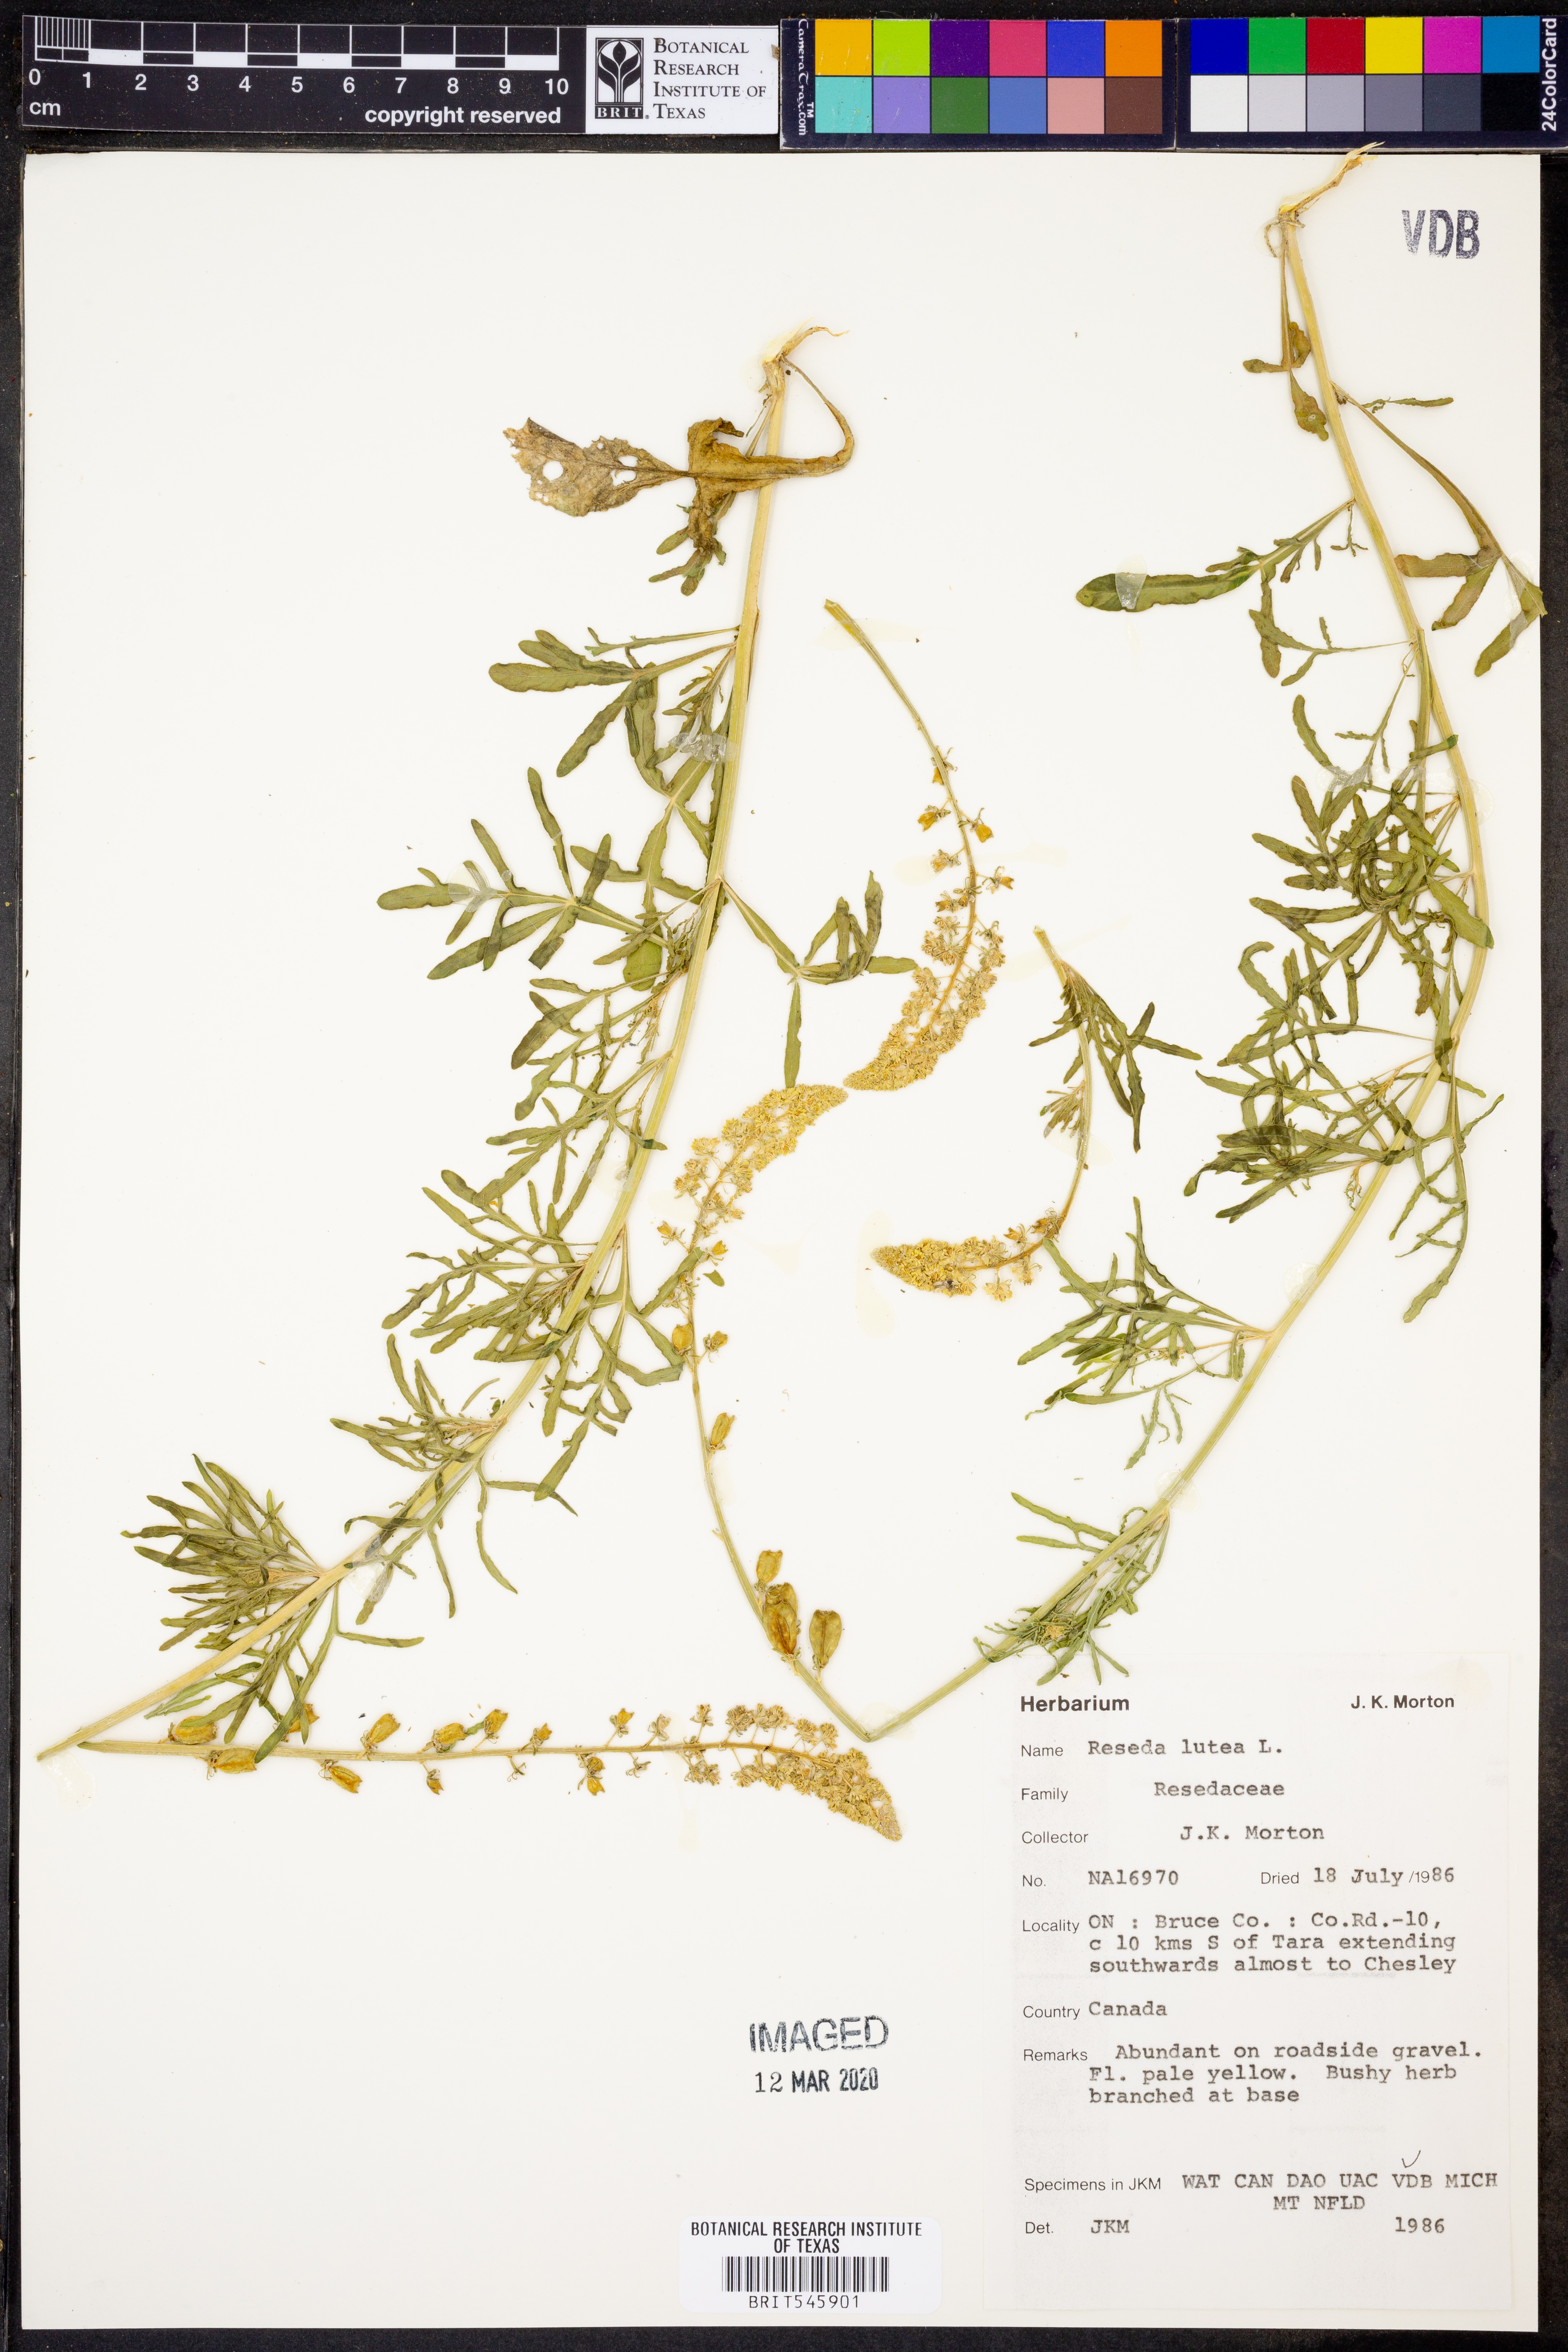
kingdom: Plantae
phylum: Tracheophyta
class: Magnoliopsida
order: Brassicales
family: Resedaceae
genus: Reseda
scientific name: Reseda lutea
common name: Wild mignonette
